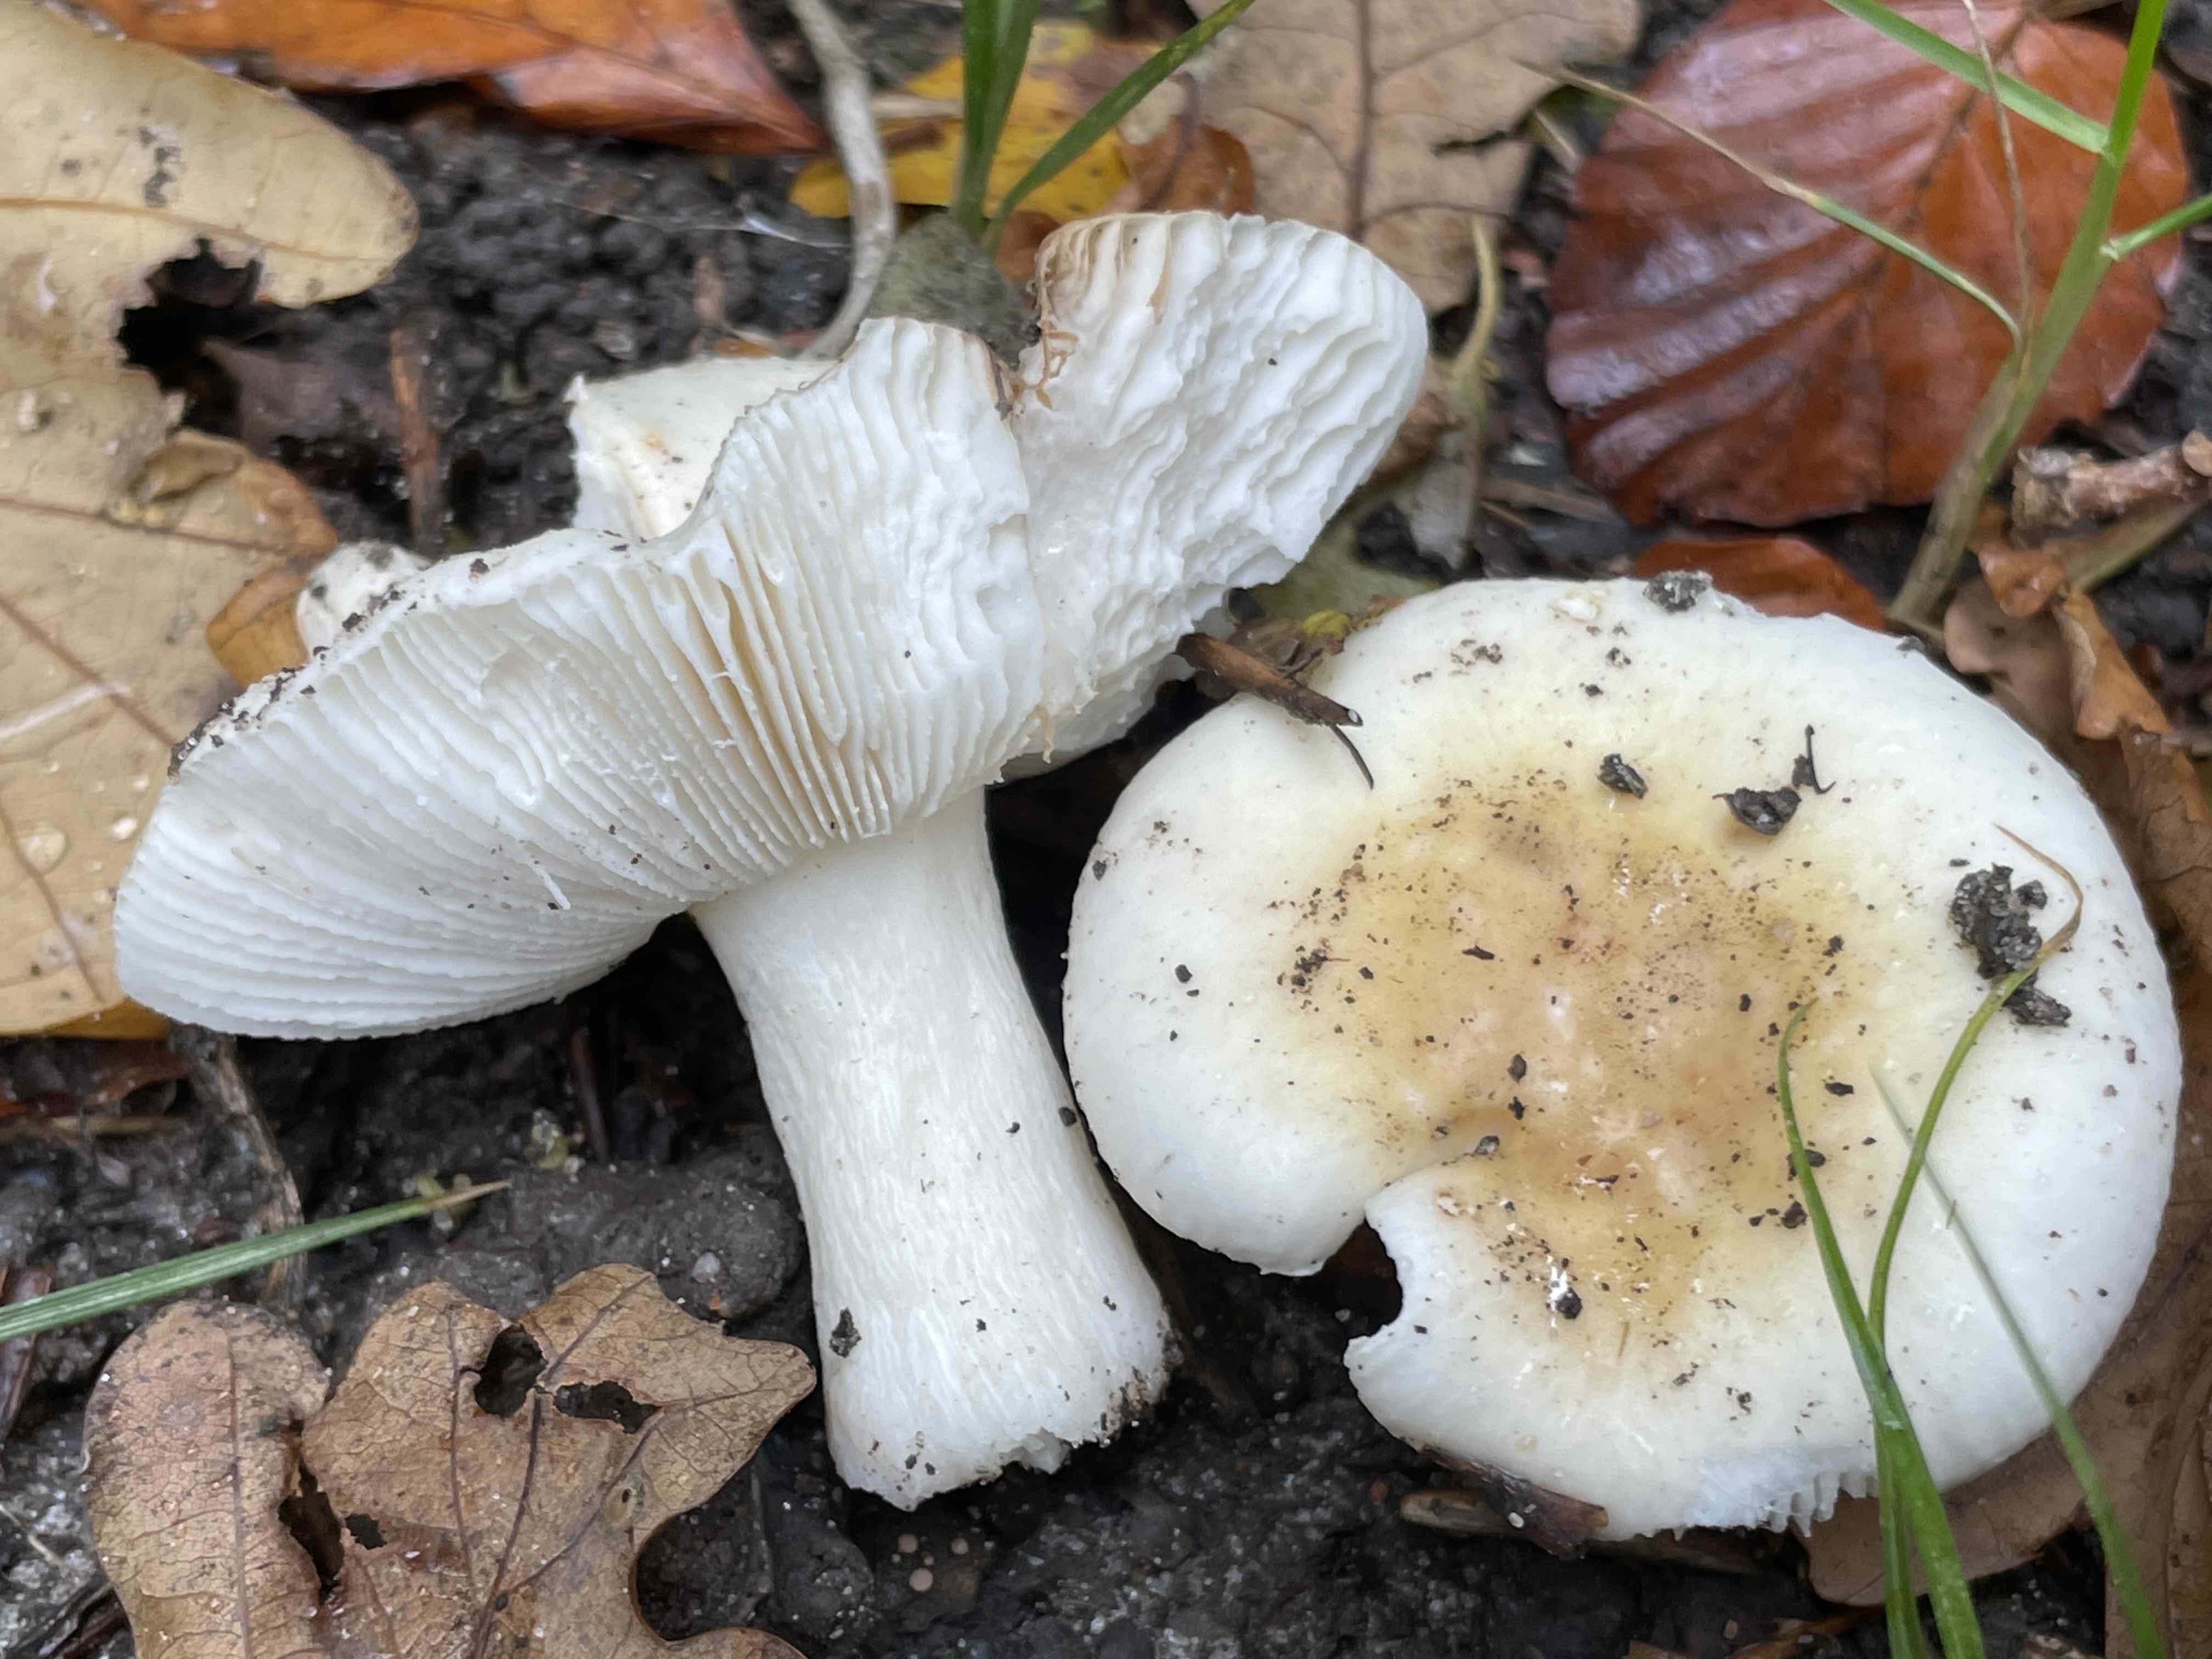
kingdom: Fungi
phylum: Basidiomycota
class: Agaricomycetes
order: Russulales
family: Russulaceae
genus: Russula
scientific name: Russula fragilis
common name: savbladet skørhat
